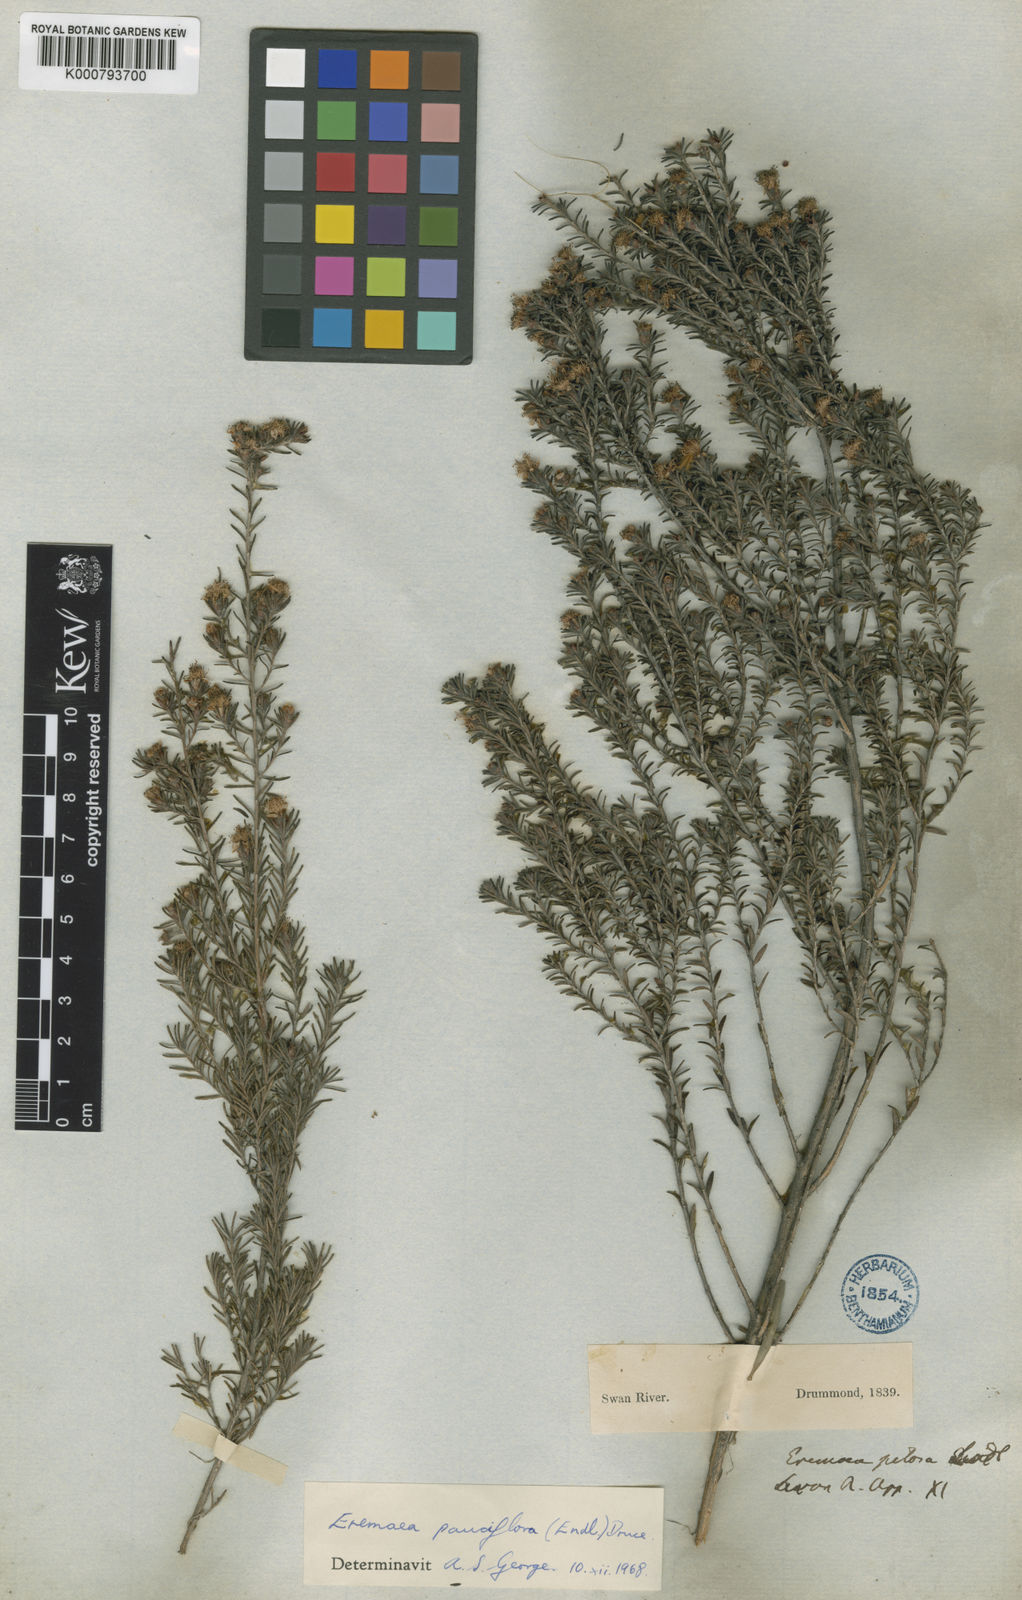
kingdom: Plantae
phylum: Tracheophyta
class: Magnoliopsida
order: Myrtales
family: Myrtaceae
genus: Melaleuca
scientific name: Melaleuca rariflora
